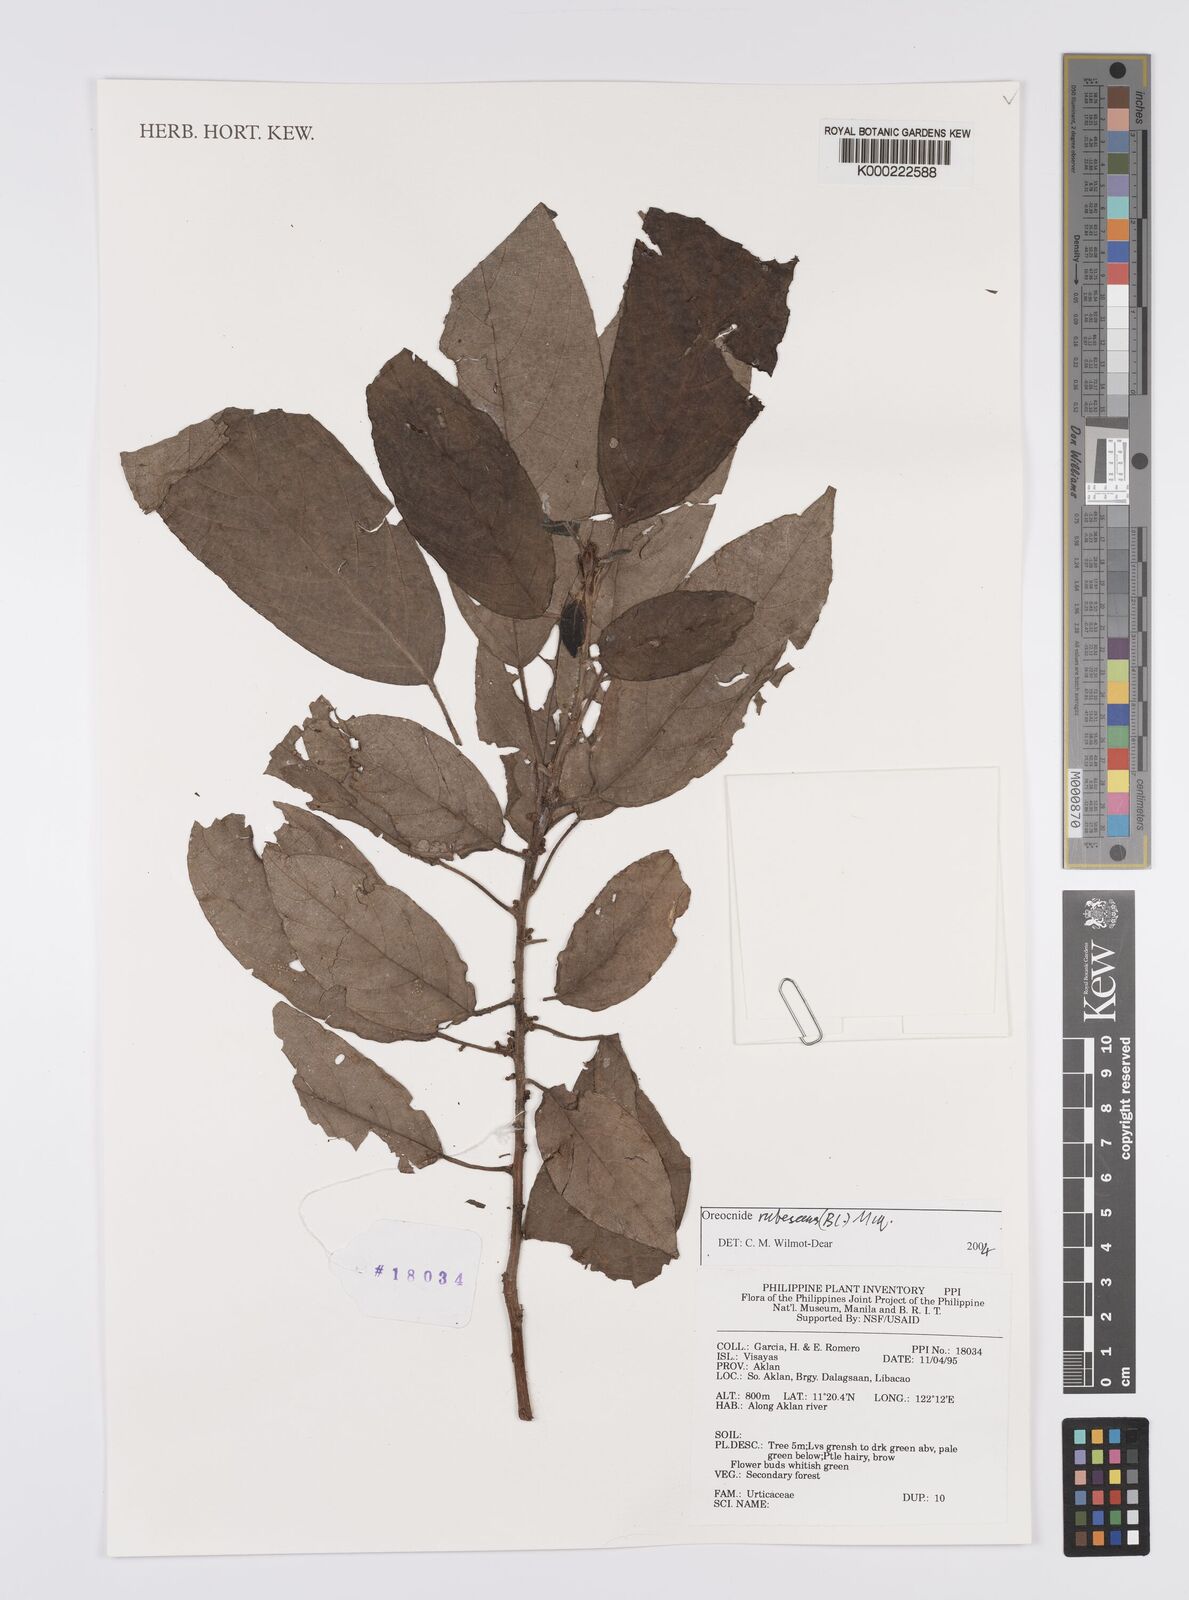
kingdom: Plantae
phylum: Tracheophyta
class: Magnoliopsida
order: Rosales
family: Urticaceae
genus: Oreocnide
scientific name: Oreocnide rubescens
